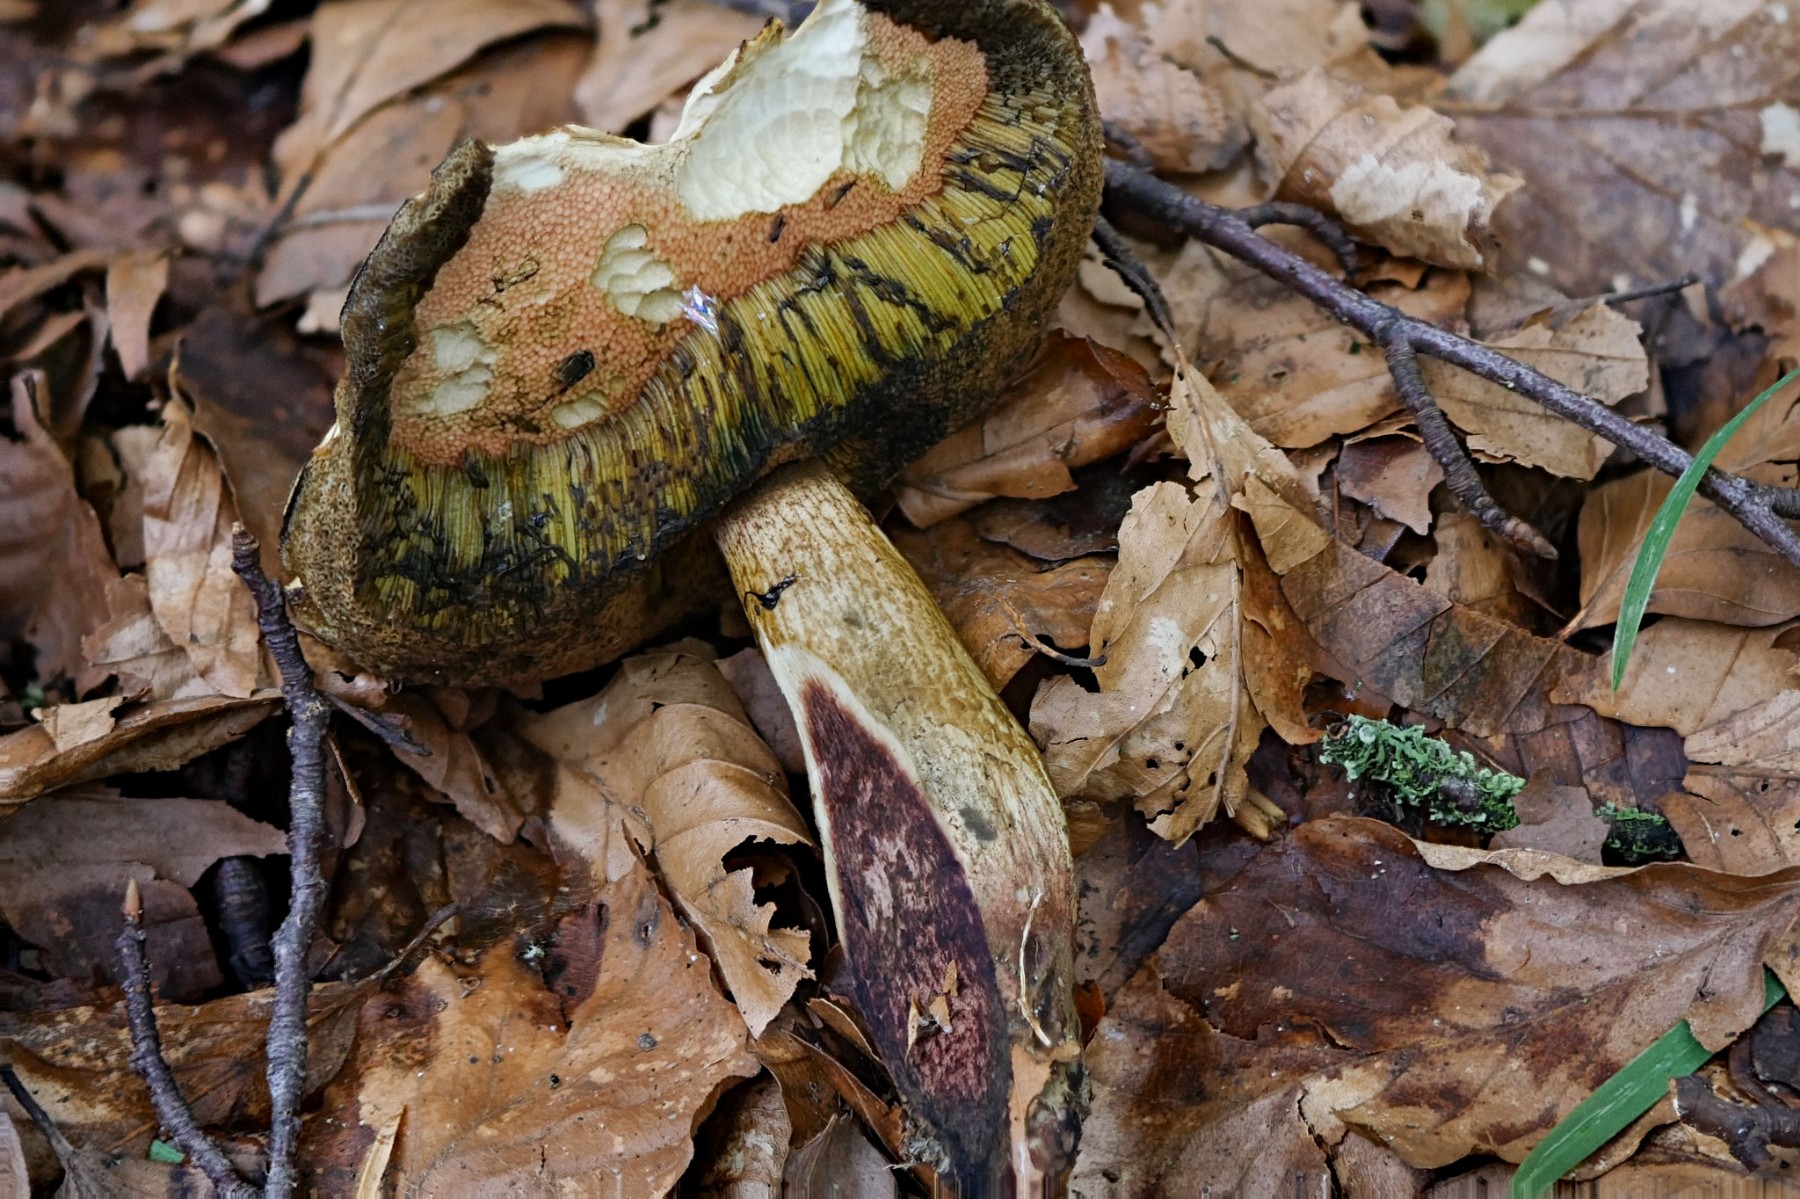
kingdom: Fungi
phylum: Basidiomycota
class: Agaricomycetes
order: Boletales
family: Boletaceae
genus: Suillellus
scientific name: Suillellus luridus
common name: netstokket indigorørhat
